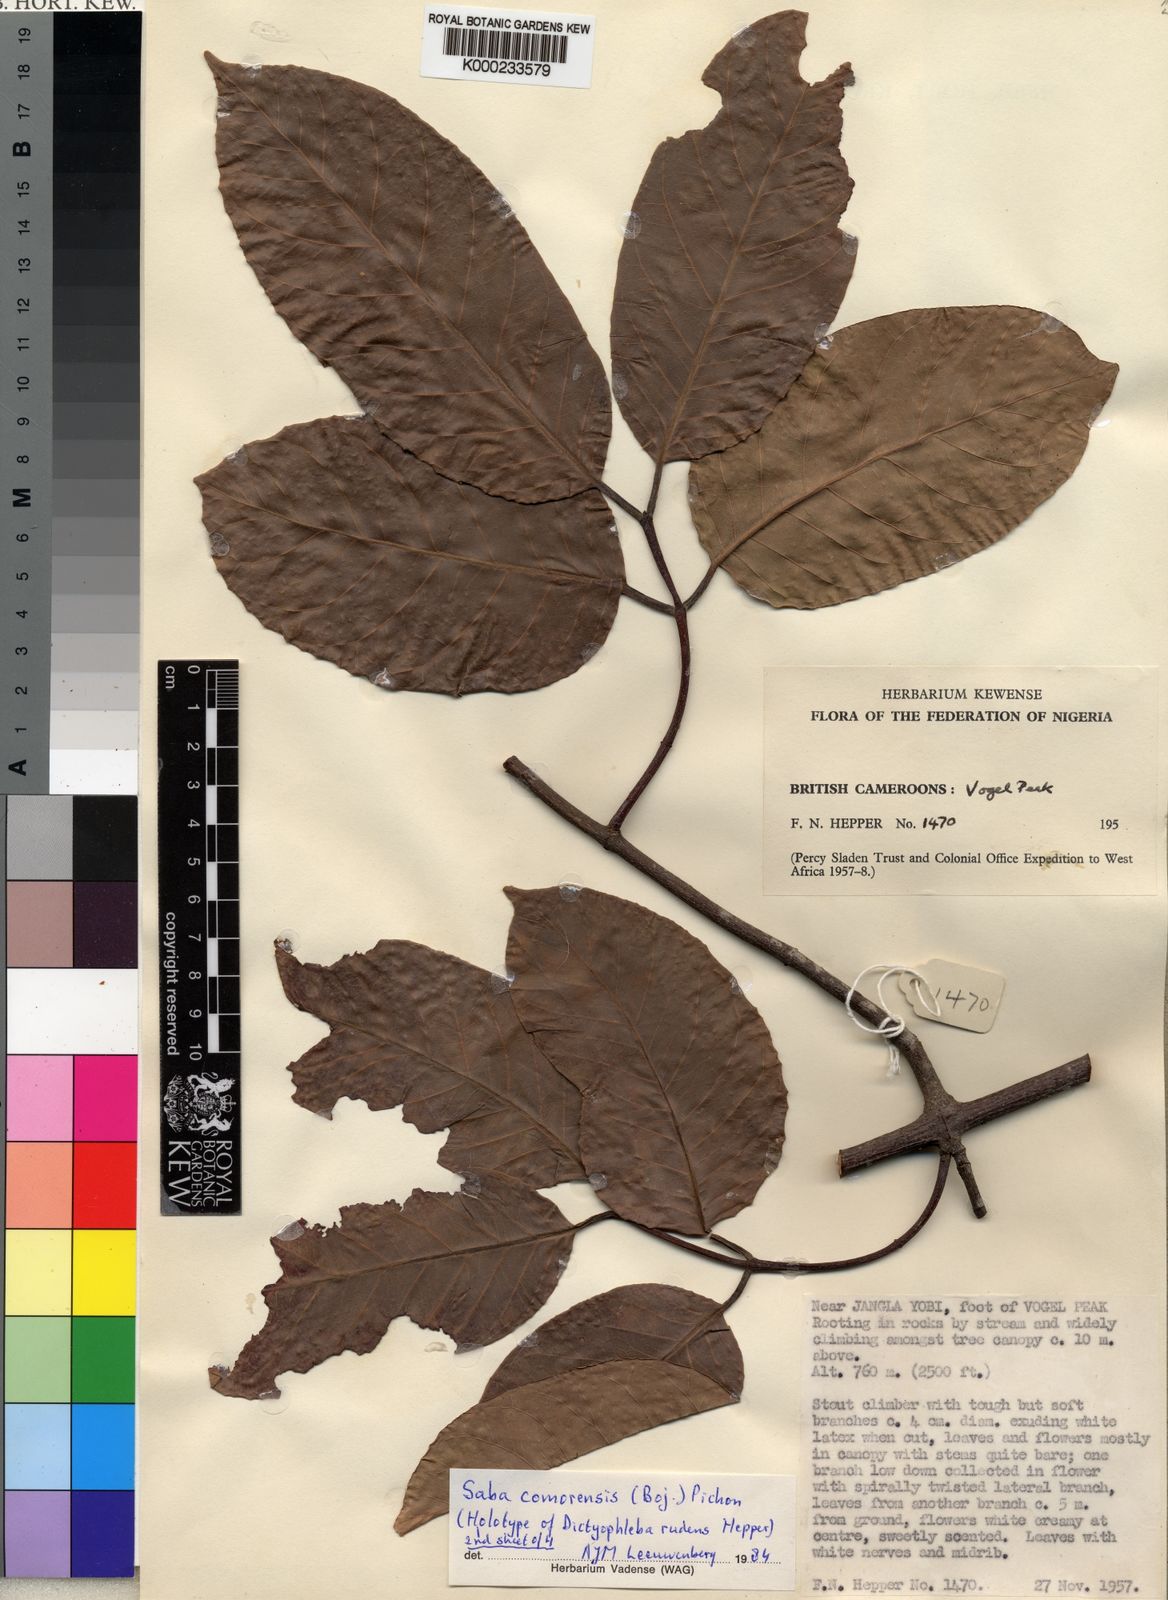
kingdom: Plantae
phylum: Tracheophyta
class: Magnoliopsida
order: Gentianales
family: Apocynaceae
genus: Saba
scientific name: Saba comorensis
